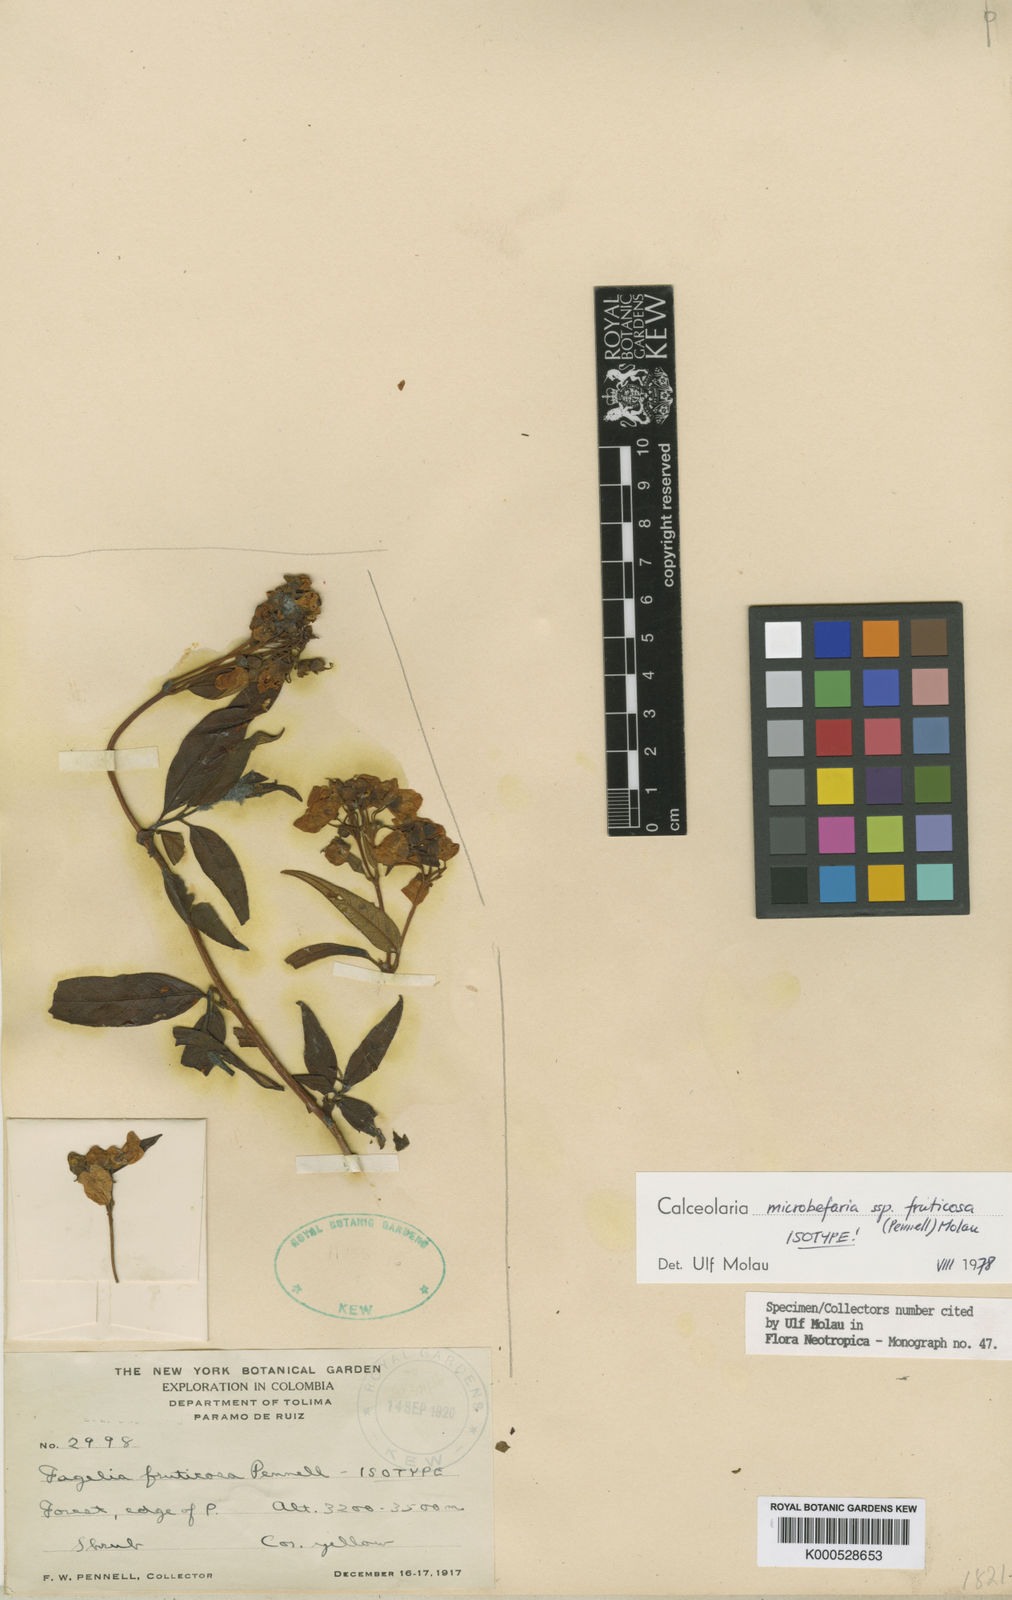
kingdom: Plantae
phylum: Tracheophyta
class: Magnoliopsida
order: Lamiales
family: Calceolariaceae
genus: Calceolaria
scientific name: Calceolaria microbefaria
